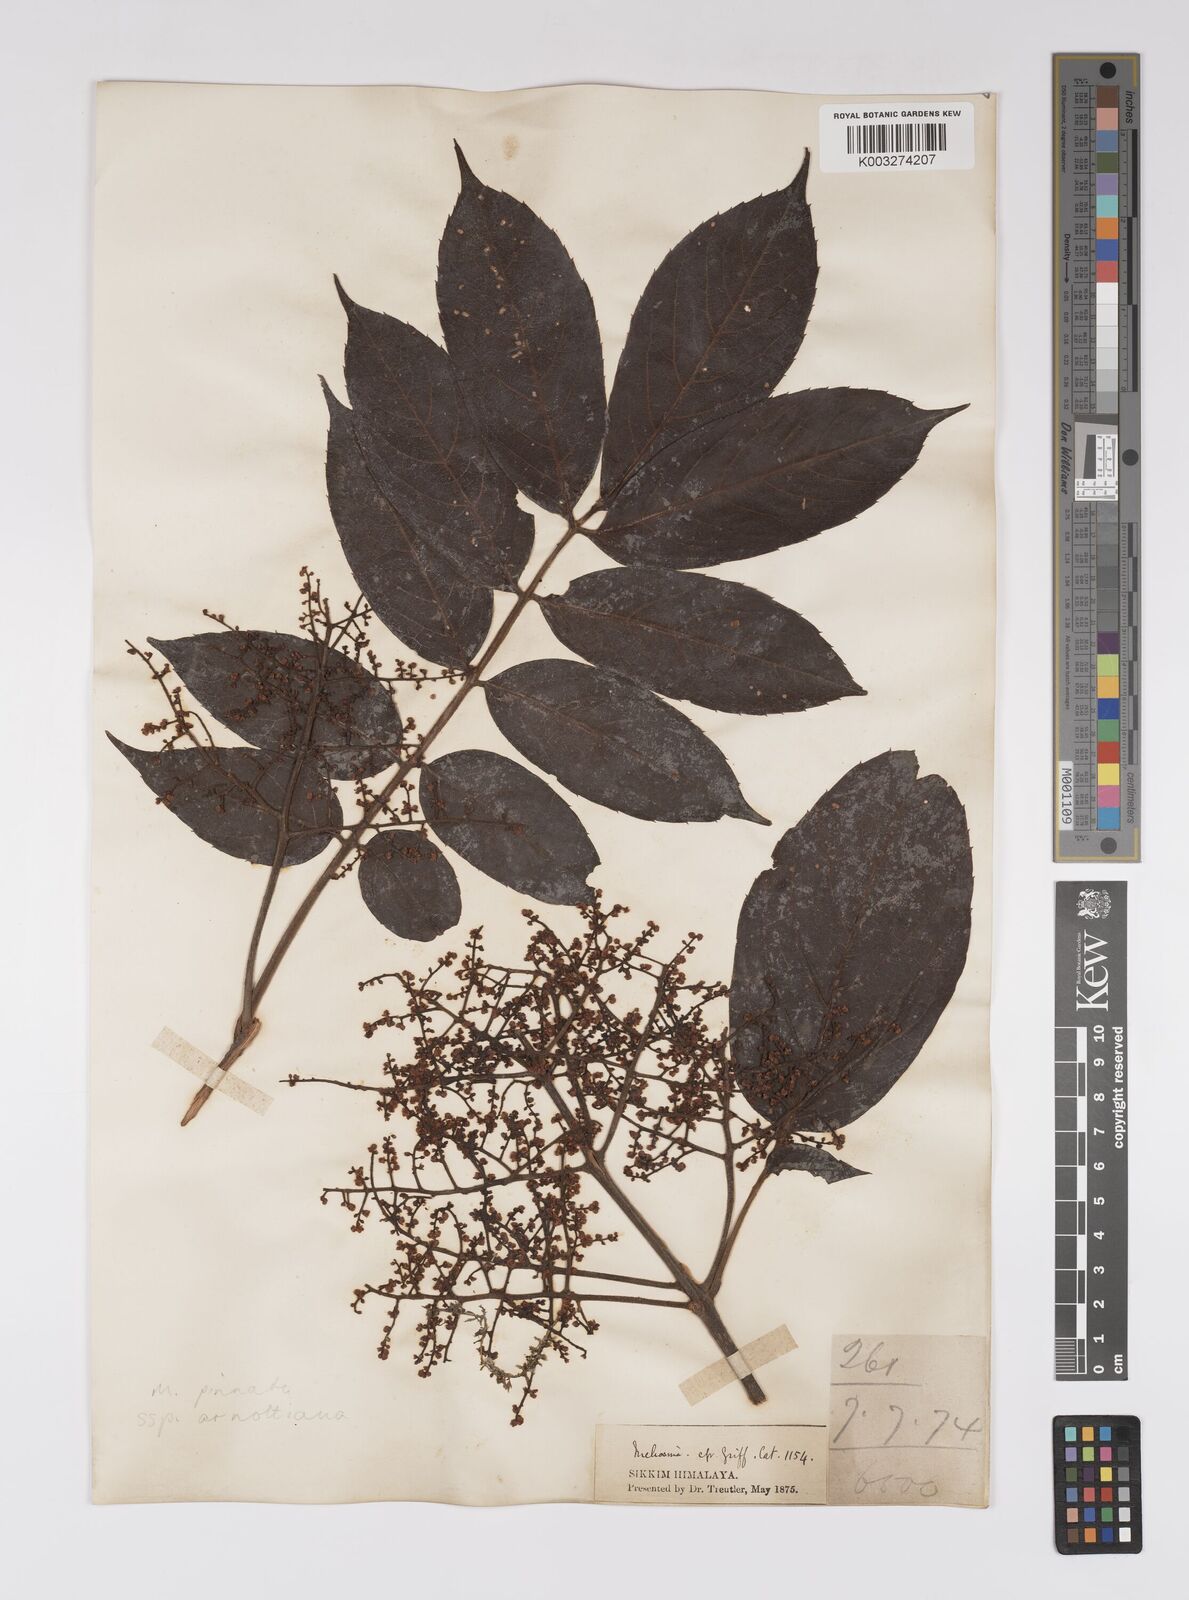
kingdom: Plantae
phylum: Tracheophyta
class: Magnoliopsida
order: Proteales
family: Sabiaceae
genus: Meliosma
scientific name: Meliosma rhoifolia
